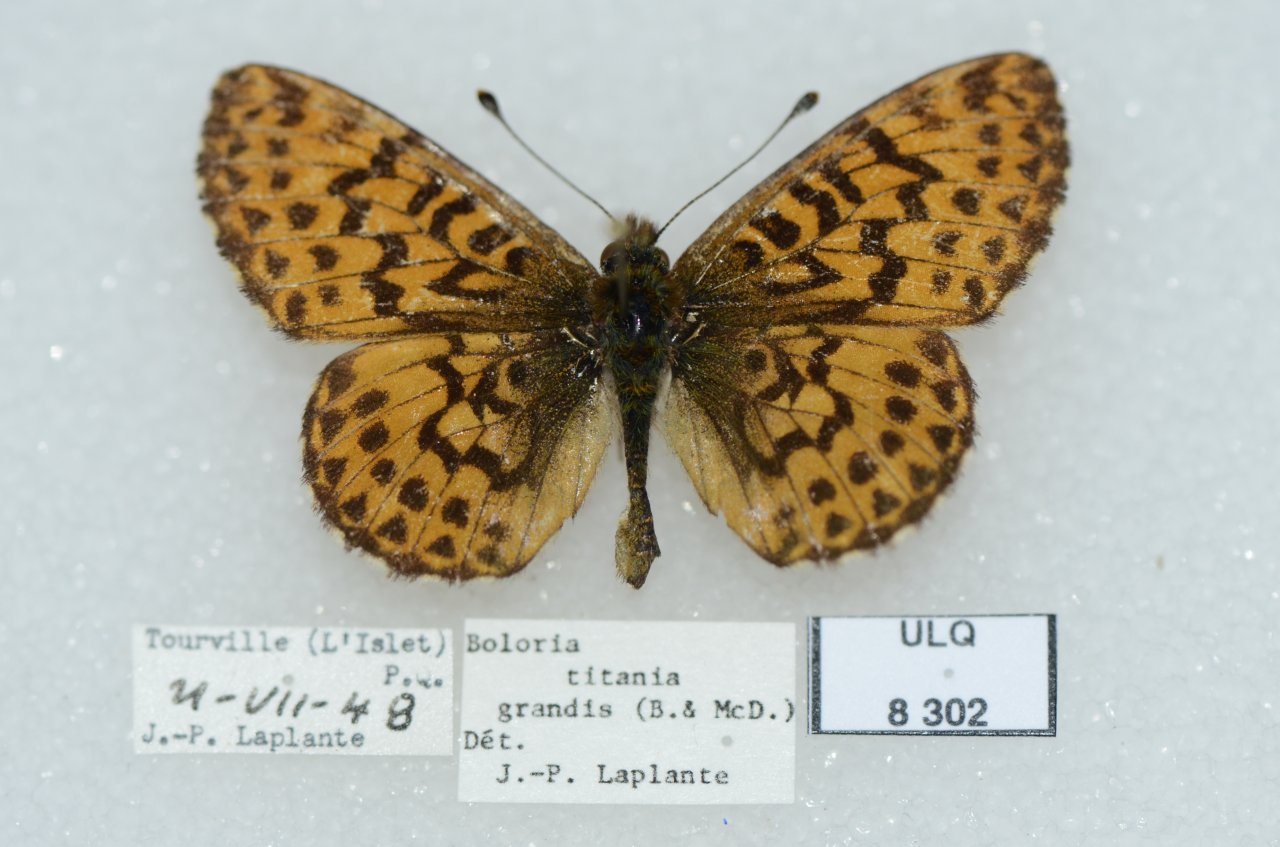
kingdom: Animalia
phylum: Arthropoda
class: Insecta
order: Lepidoptera
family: Nymphalidae
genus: Boloria
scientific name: Boloria chariclea
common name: Arctic Fritillary
